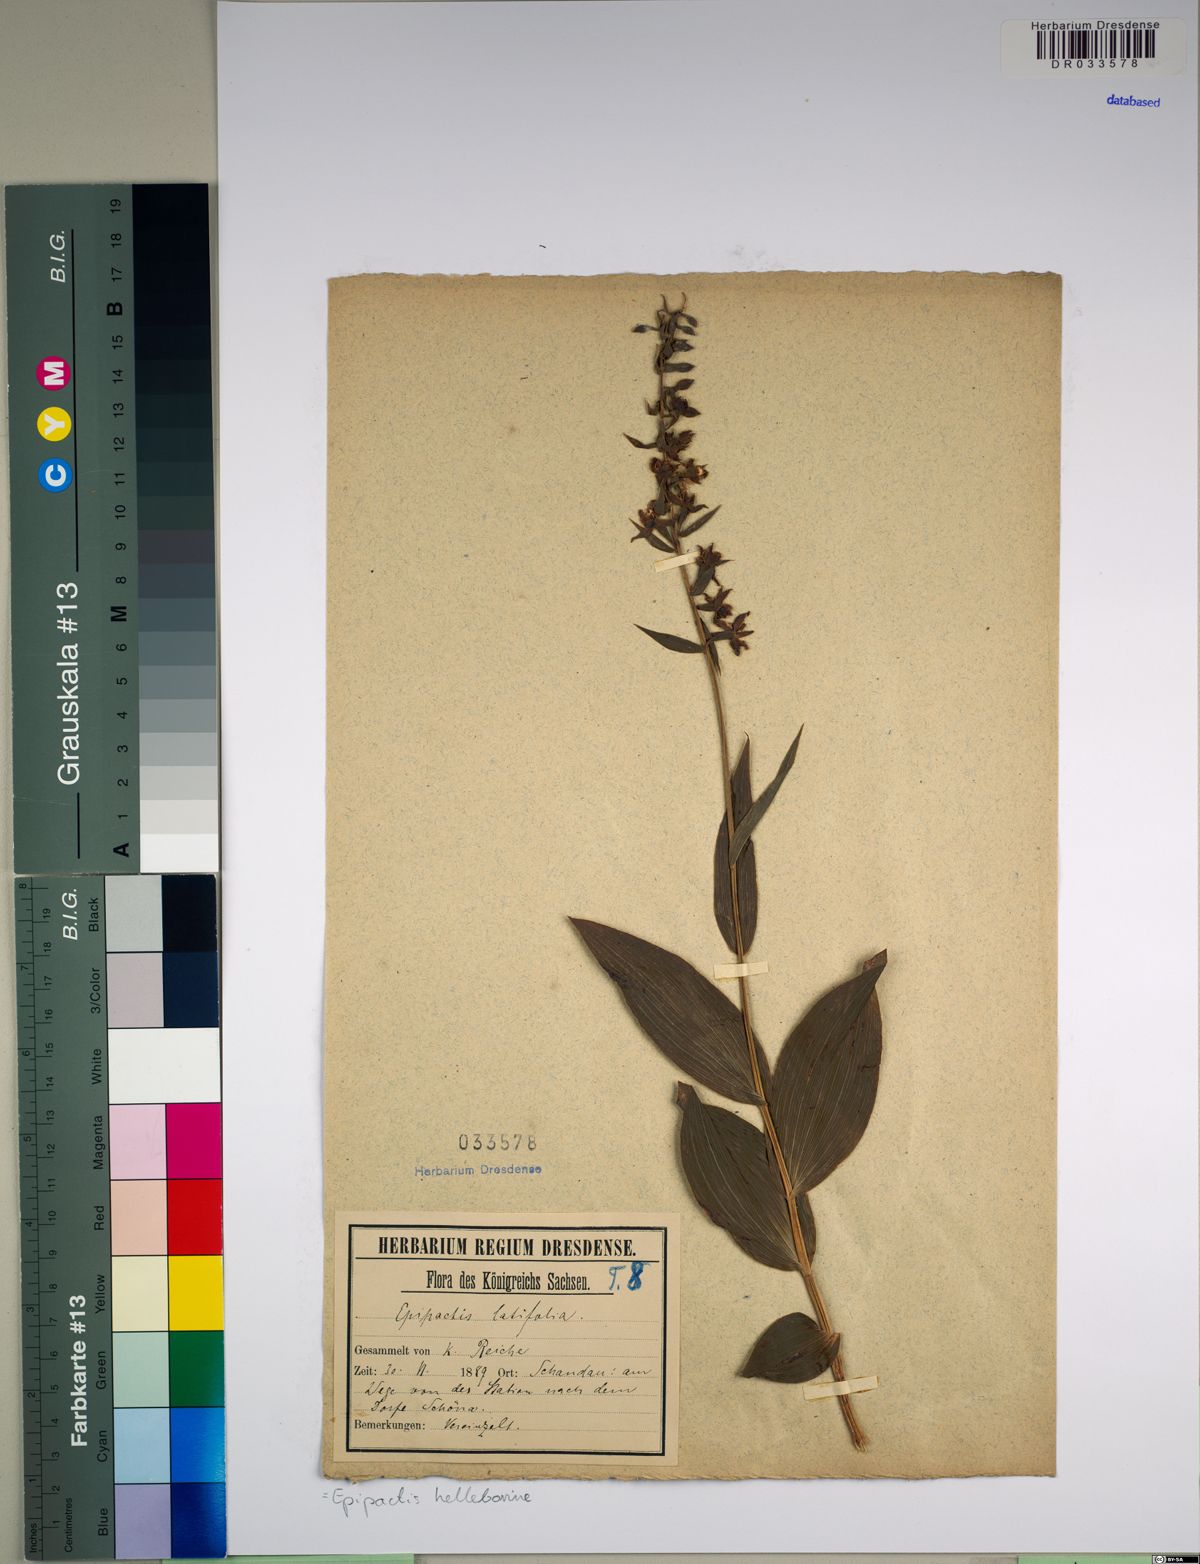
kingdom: Plantae
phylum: Tracheophyta
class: Liliopsida
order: Asparagales
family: Orchidaceae
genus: Epipactis
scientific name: Epipactis helleborine
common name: Broad-leaved helleborine
